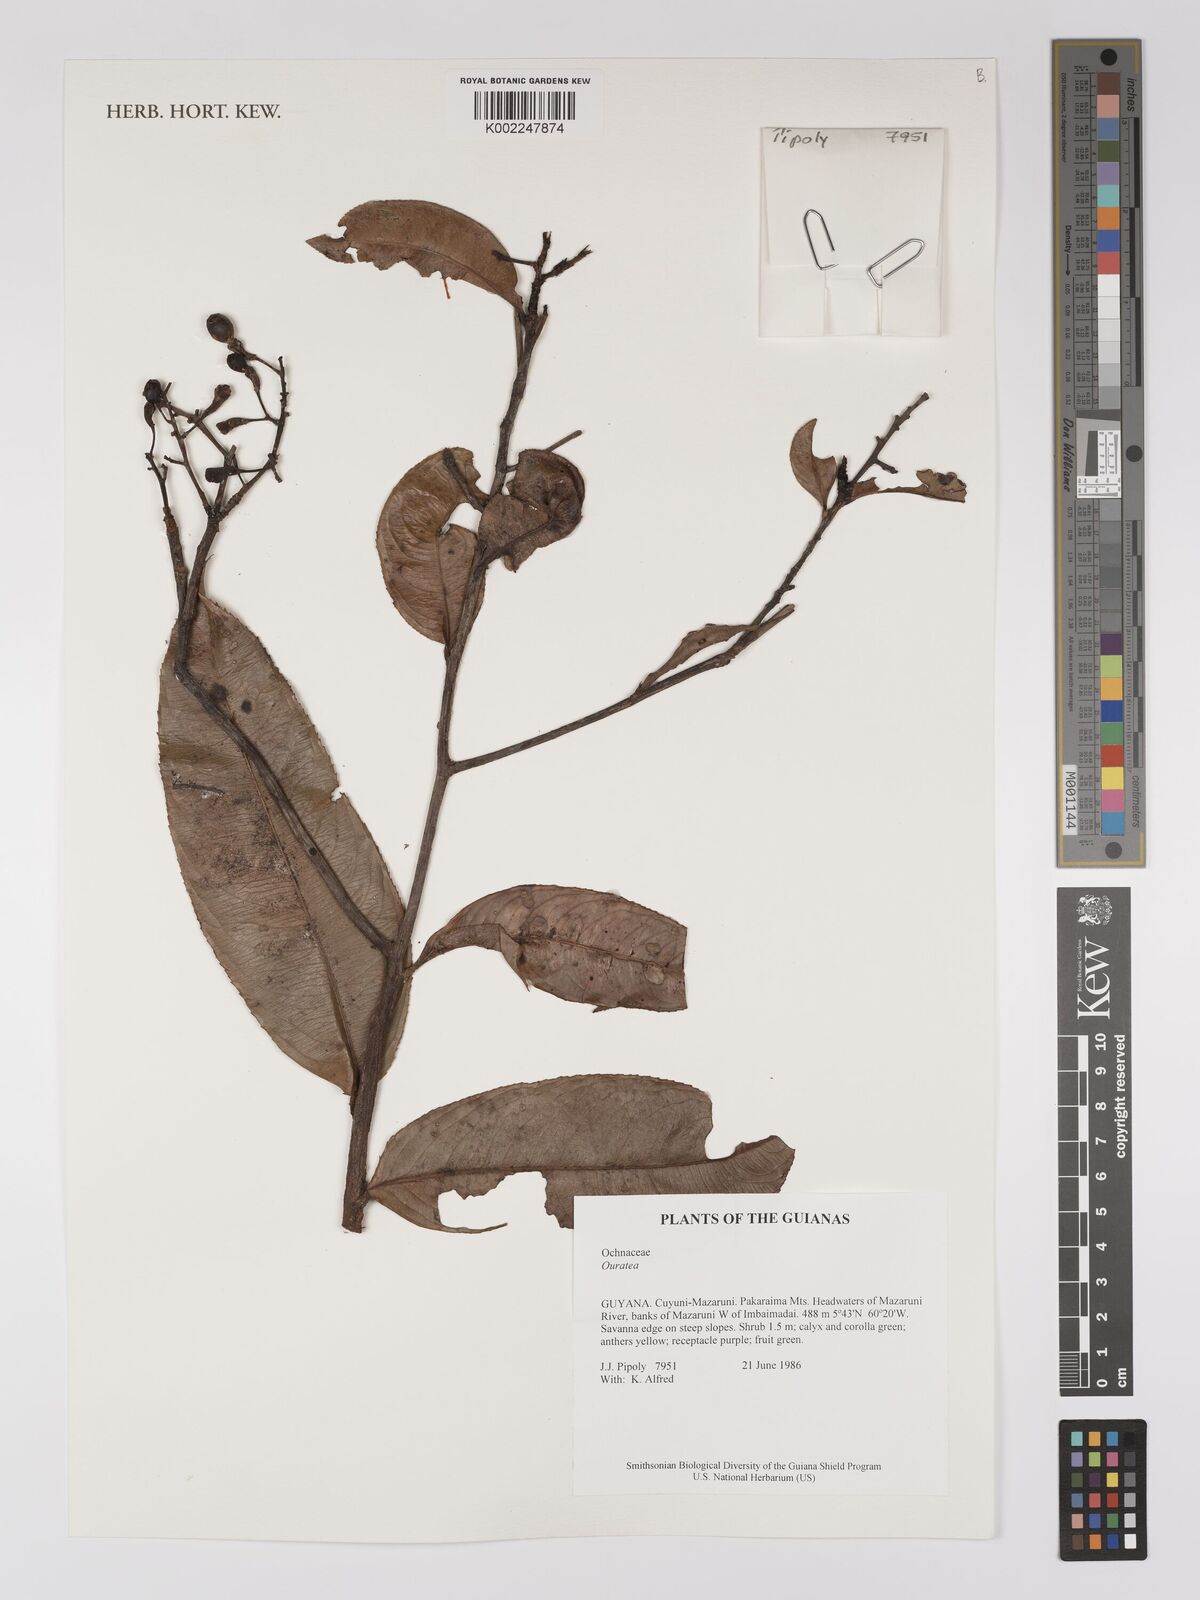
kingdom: Plantae
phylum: Tracheophyta
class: Magnoliopsida
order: Malpighiales
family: Ochnaceae
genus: Ouratea
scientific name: Ouratea
